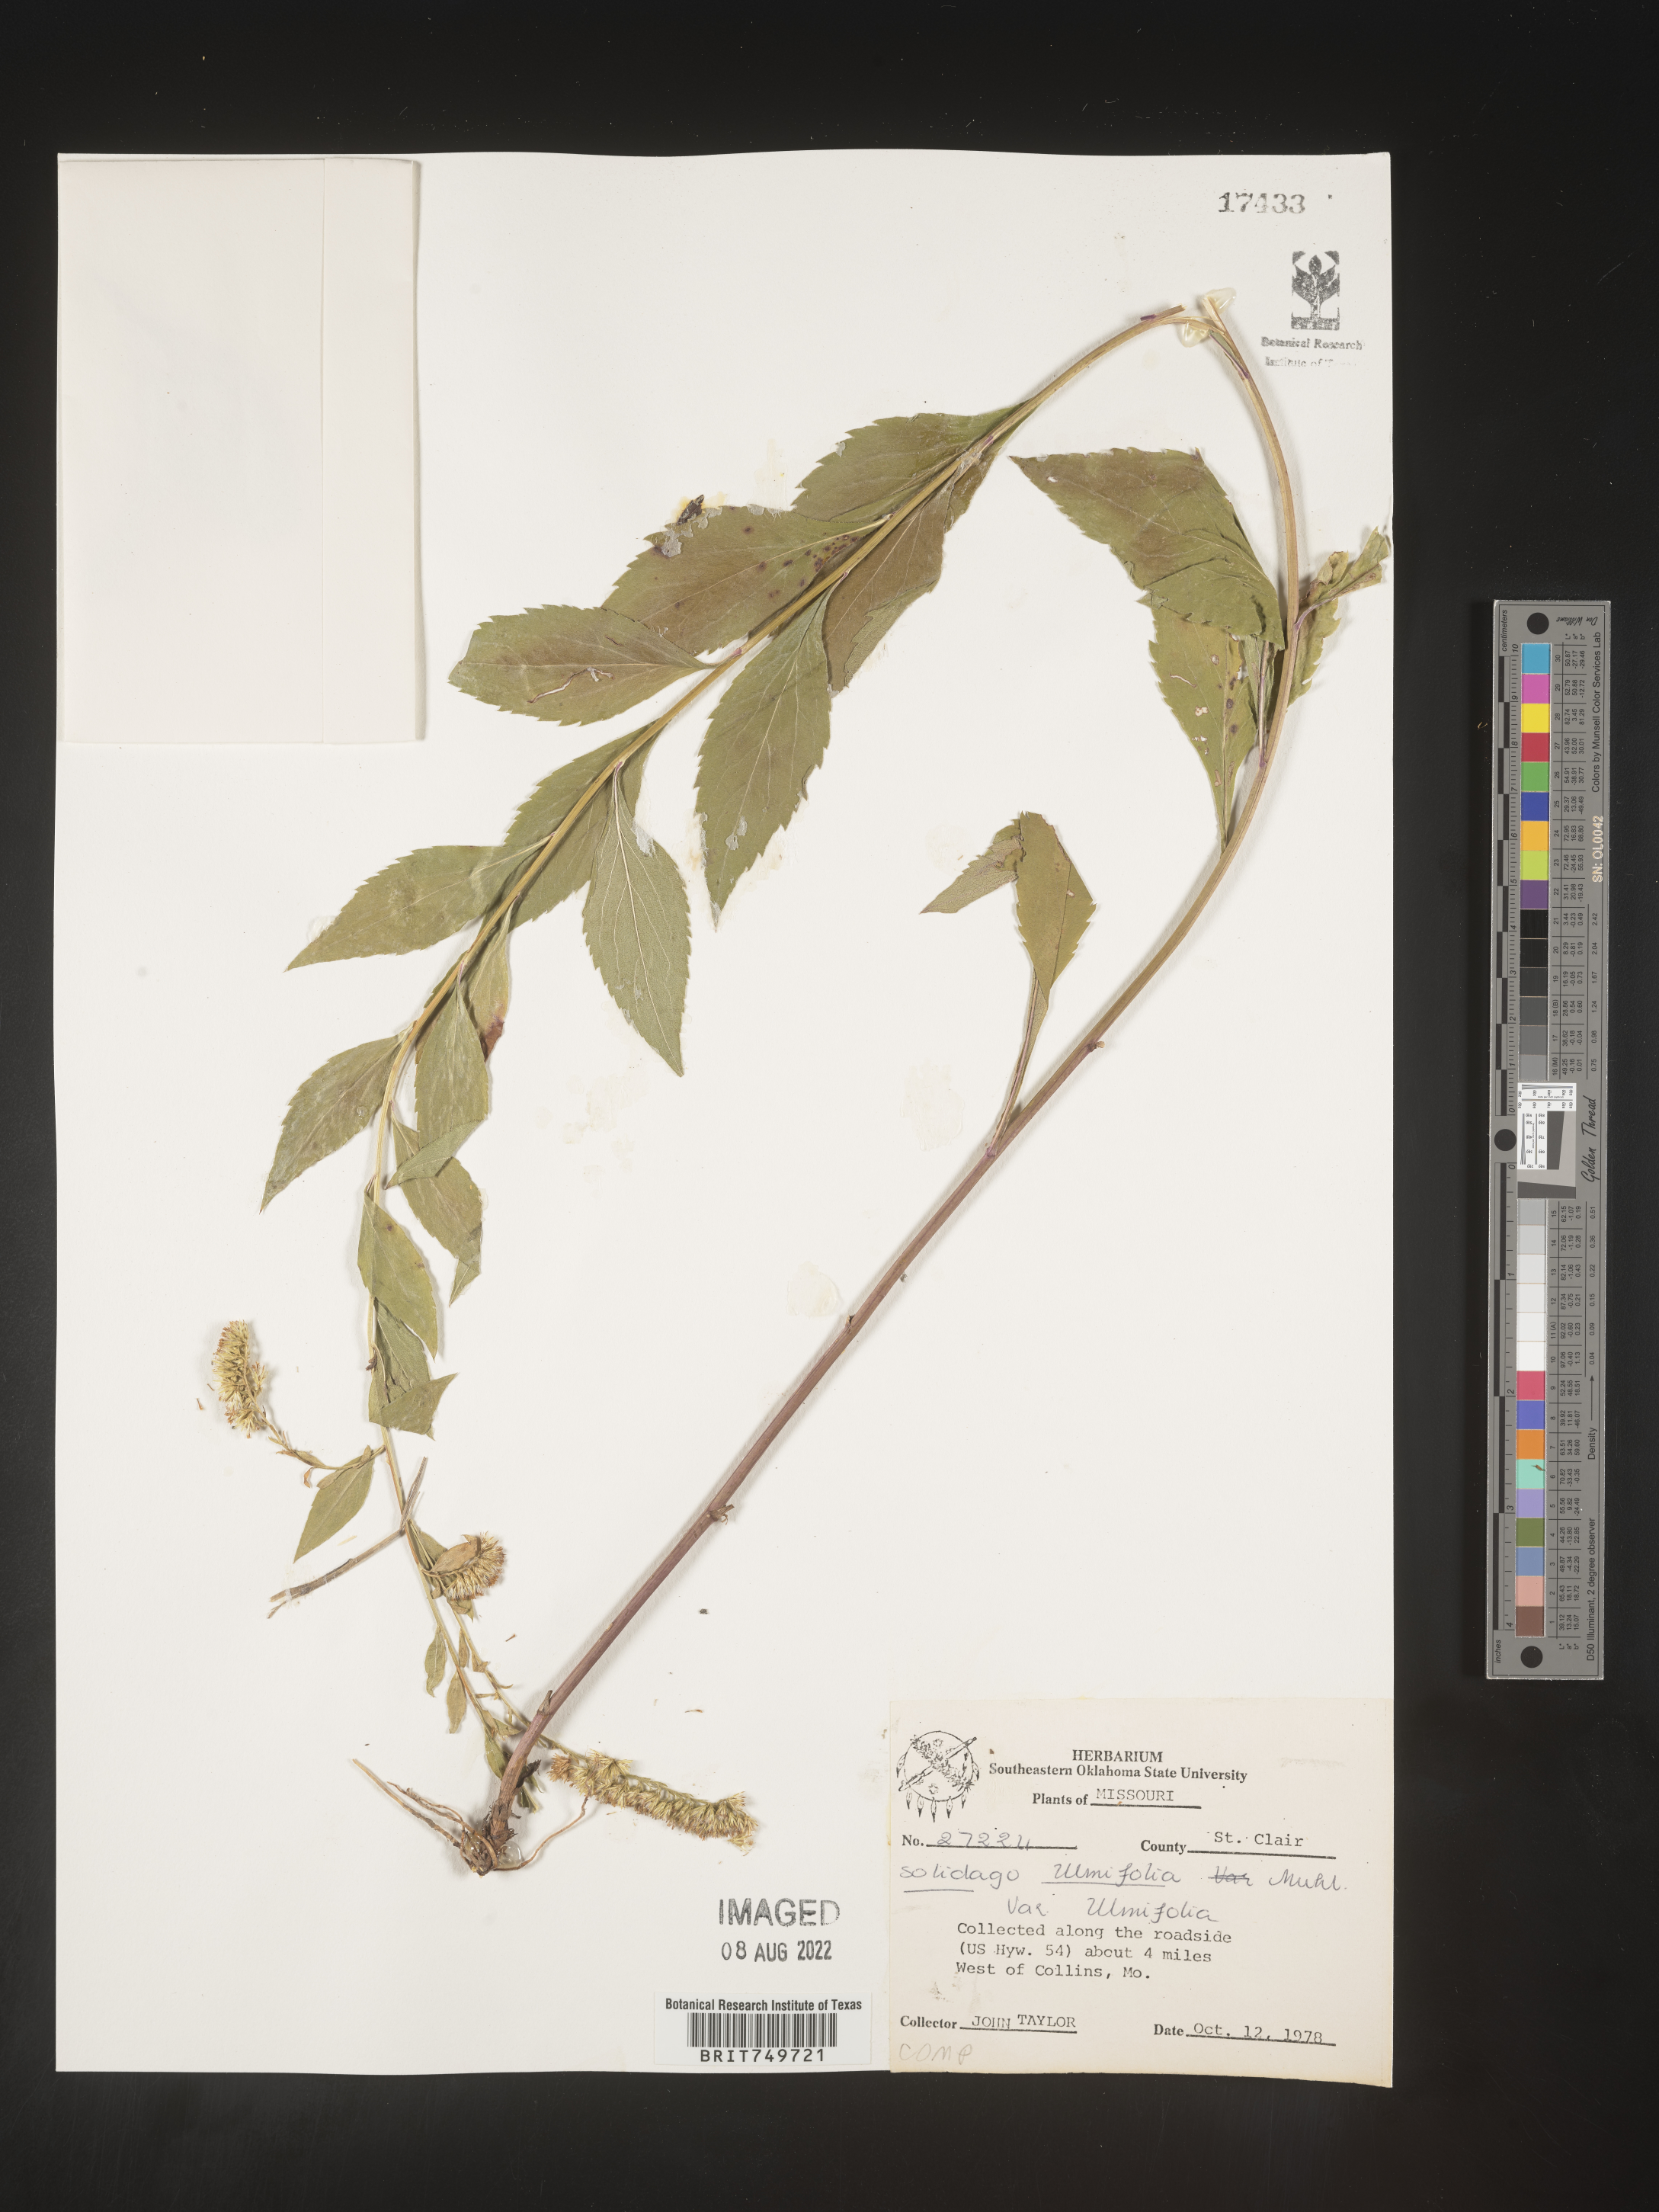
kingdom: Plantae
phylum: Tracheophyta
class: Magnoliopsida
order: Asterales
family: Asteraceae
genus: Solidago
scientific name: Solidago ulmifolia
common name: Elm-leaf goldenrod
